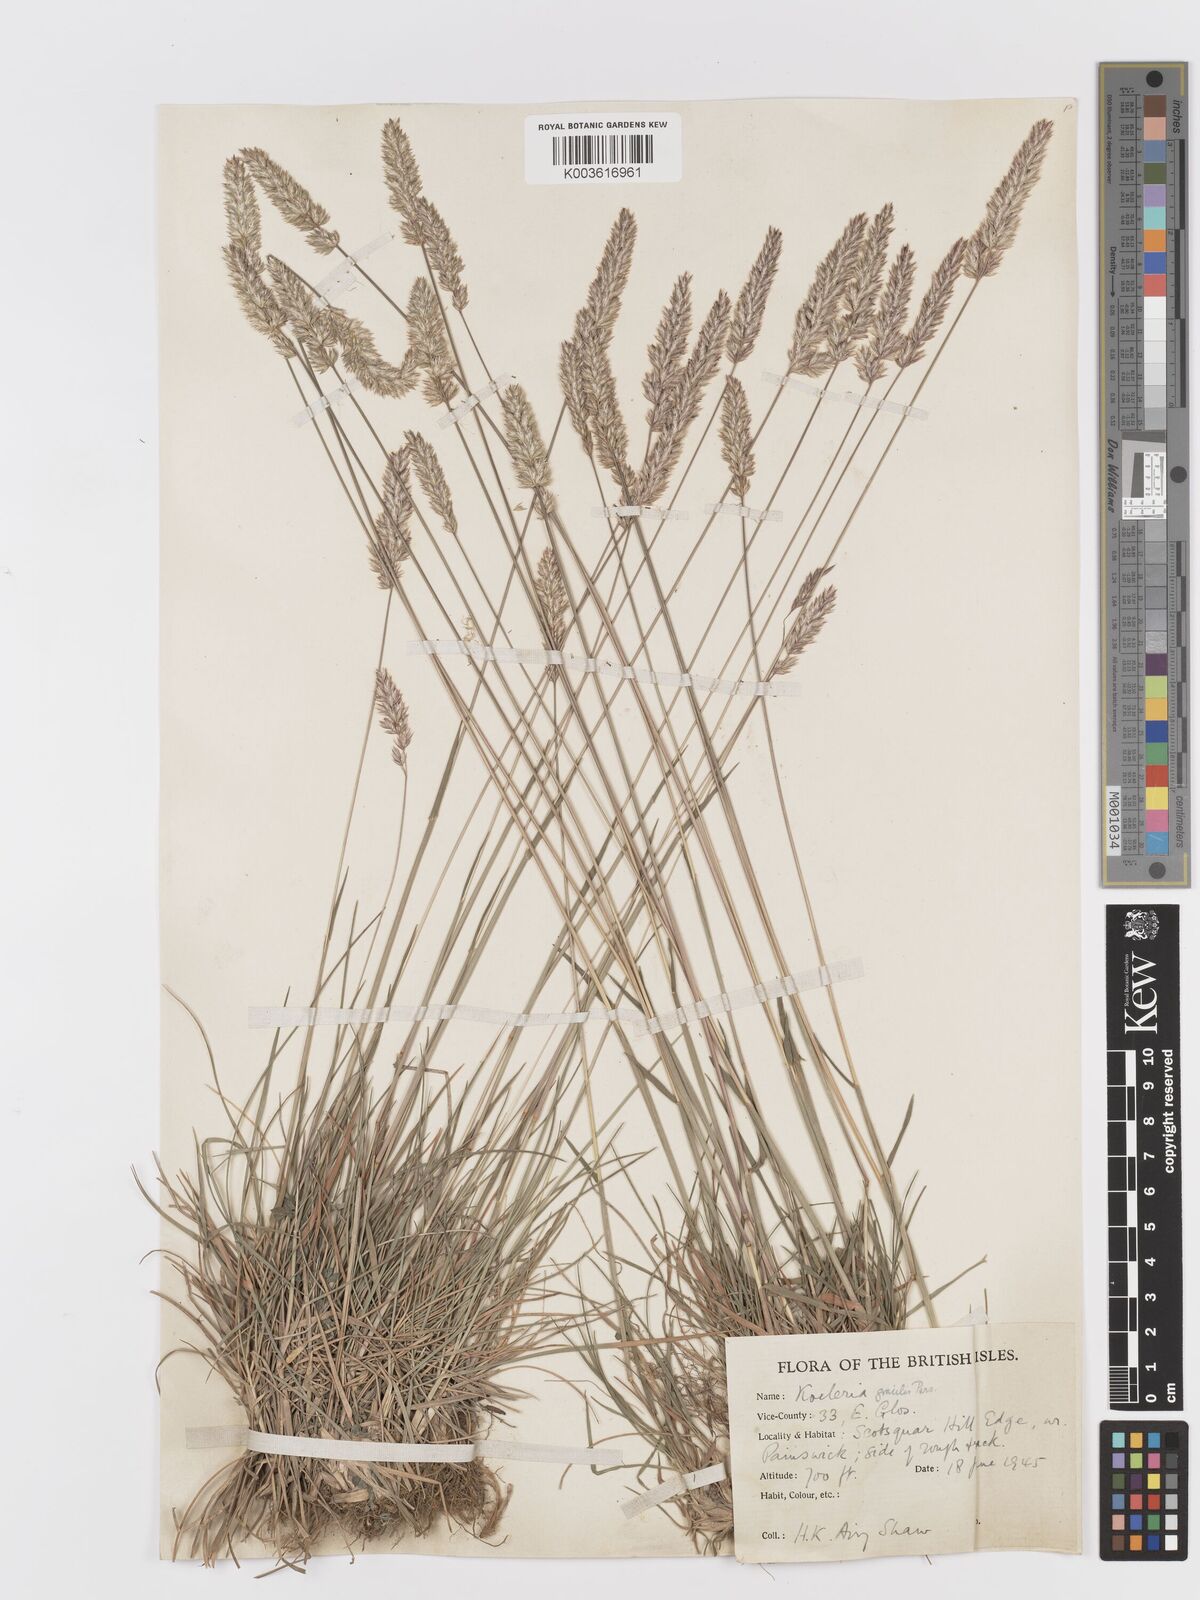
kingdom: Plantae
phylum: Tracheophyta
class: Liliopsida
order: Poales
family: Poaceae
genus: Koeleria
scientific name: Koeleria nitidula
